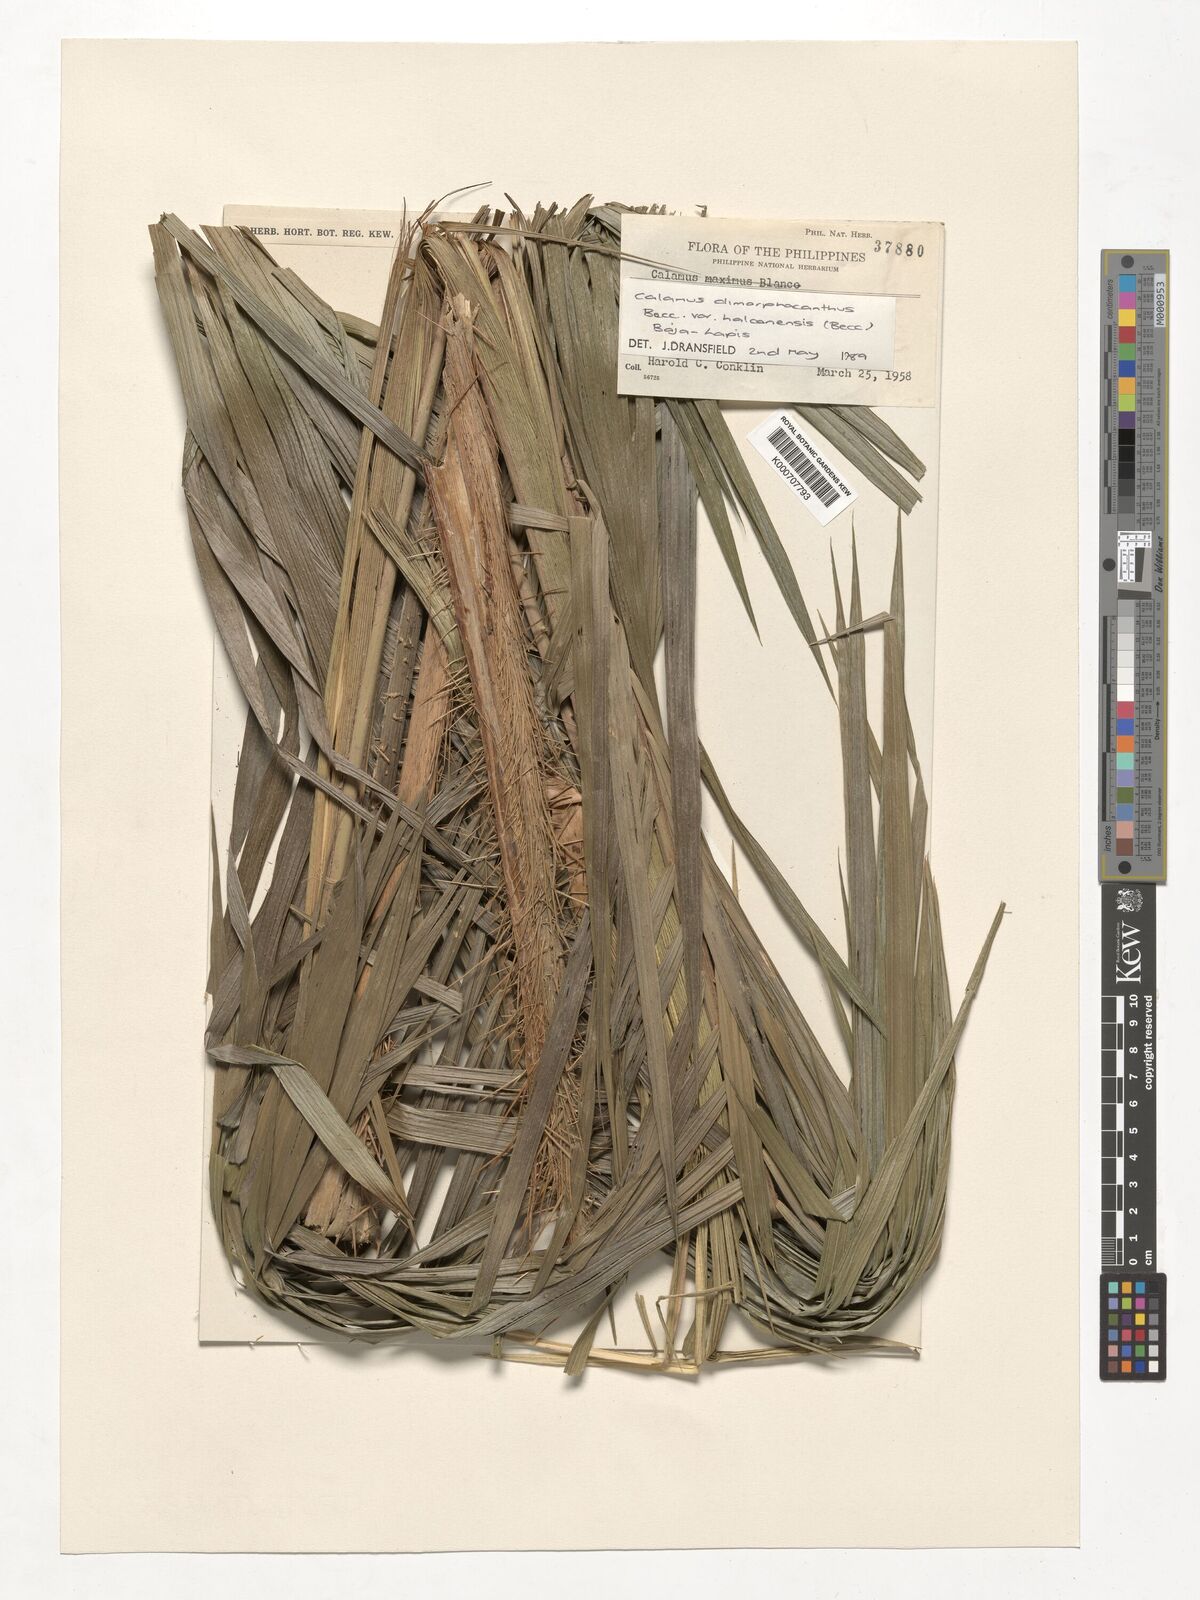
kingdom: Plantae
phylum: Tracheophyta
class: Liliopsida
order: Arecales
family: Arecaceae
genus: Calamus
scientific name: Calamus siphonospathus
